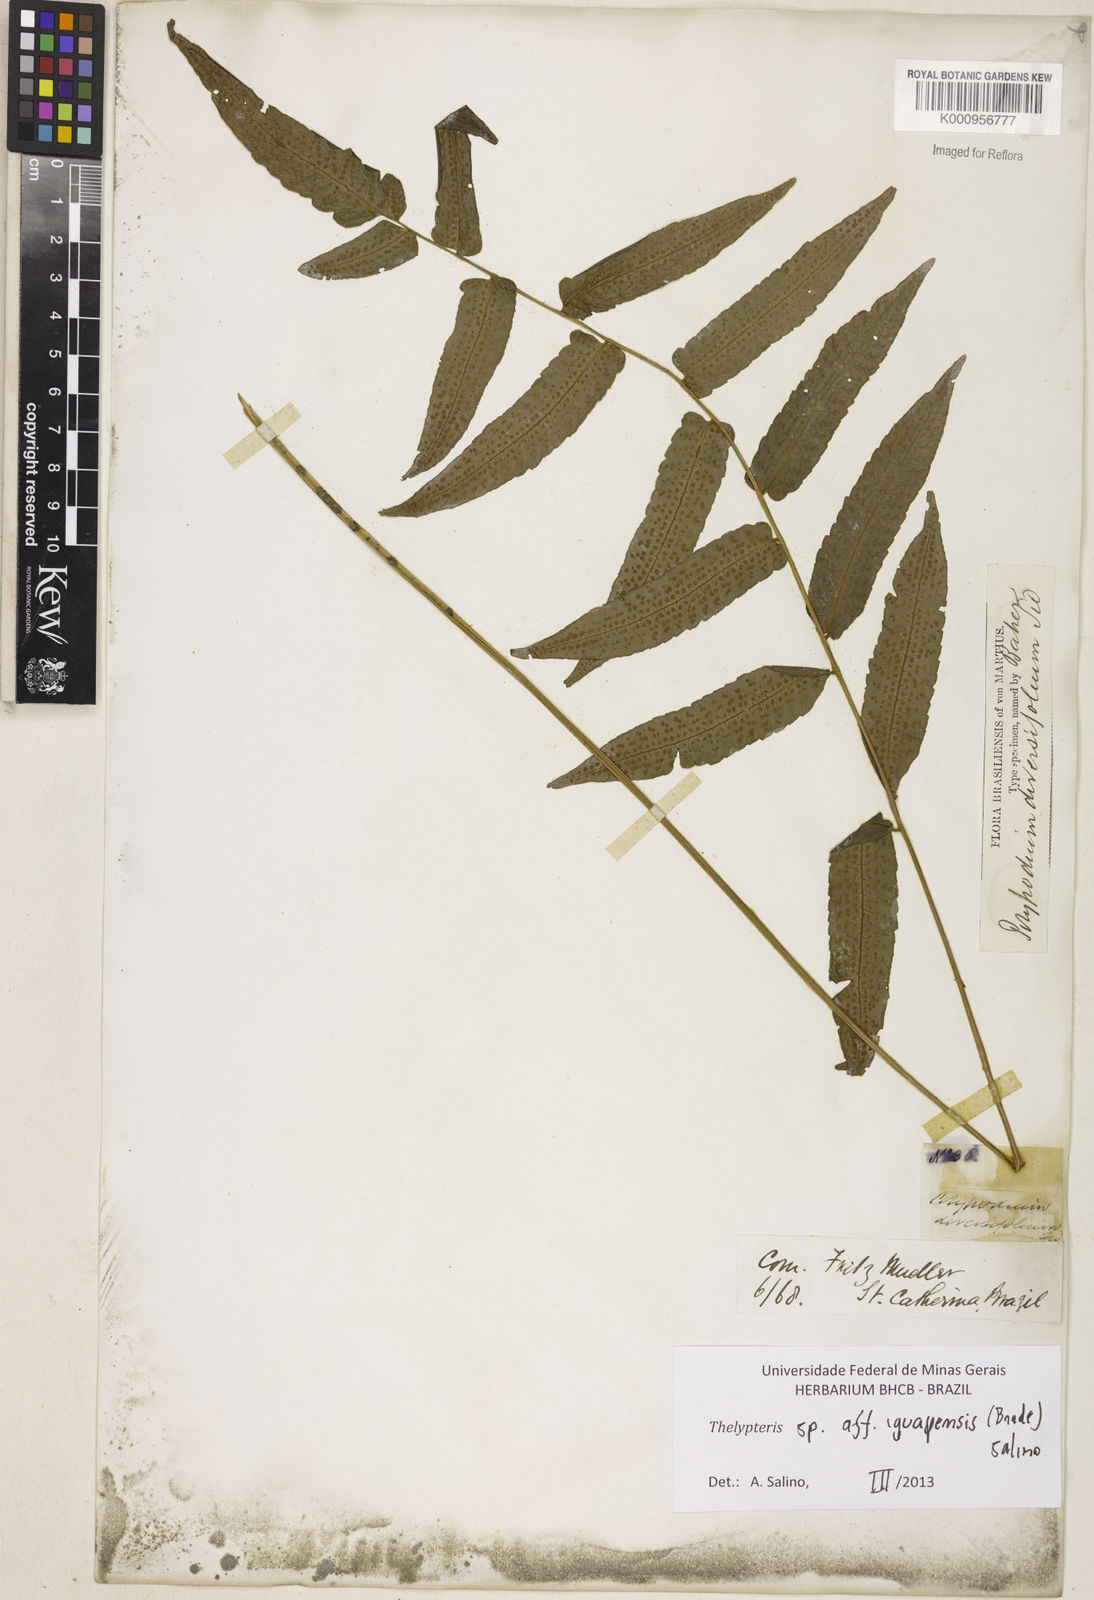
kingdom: Plantae
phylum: Tracheophyta
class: Polypodiopsida
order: Polypodiales
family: Thelypteridaceae
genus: Goniopteris
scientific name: Goniopteris iguapensis
